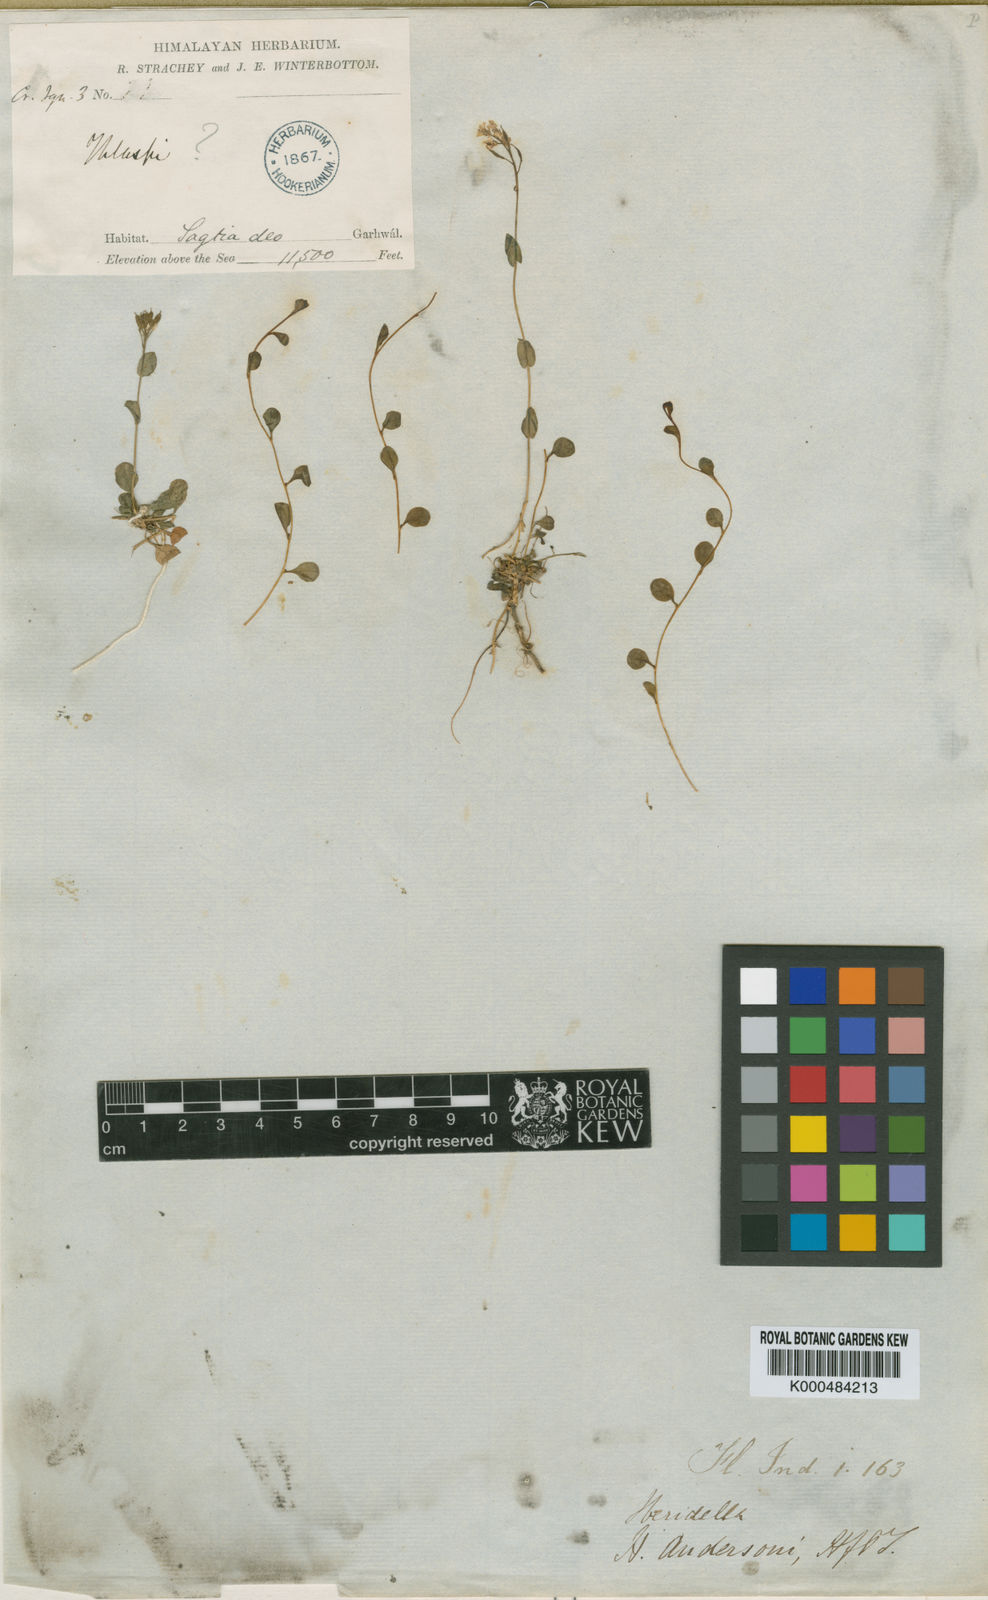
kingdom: Plantae
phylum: Tracheophyta
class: Magnoliopsida
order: Brassicales
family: Brassicaceae
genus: Aethionema
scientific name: Aethionema
